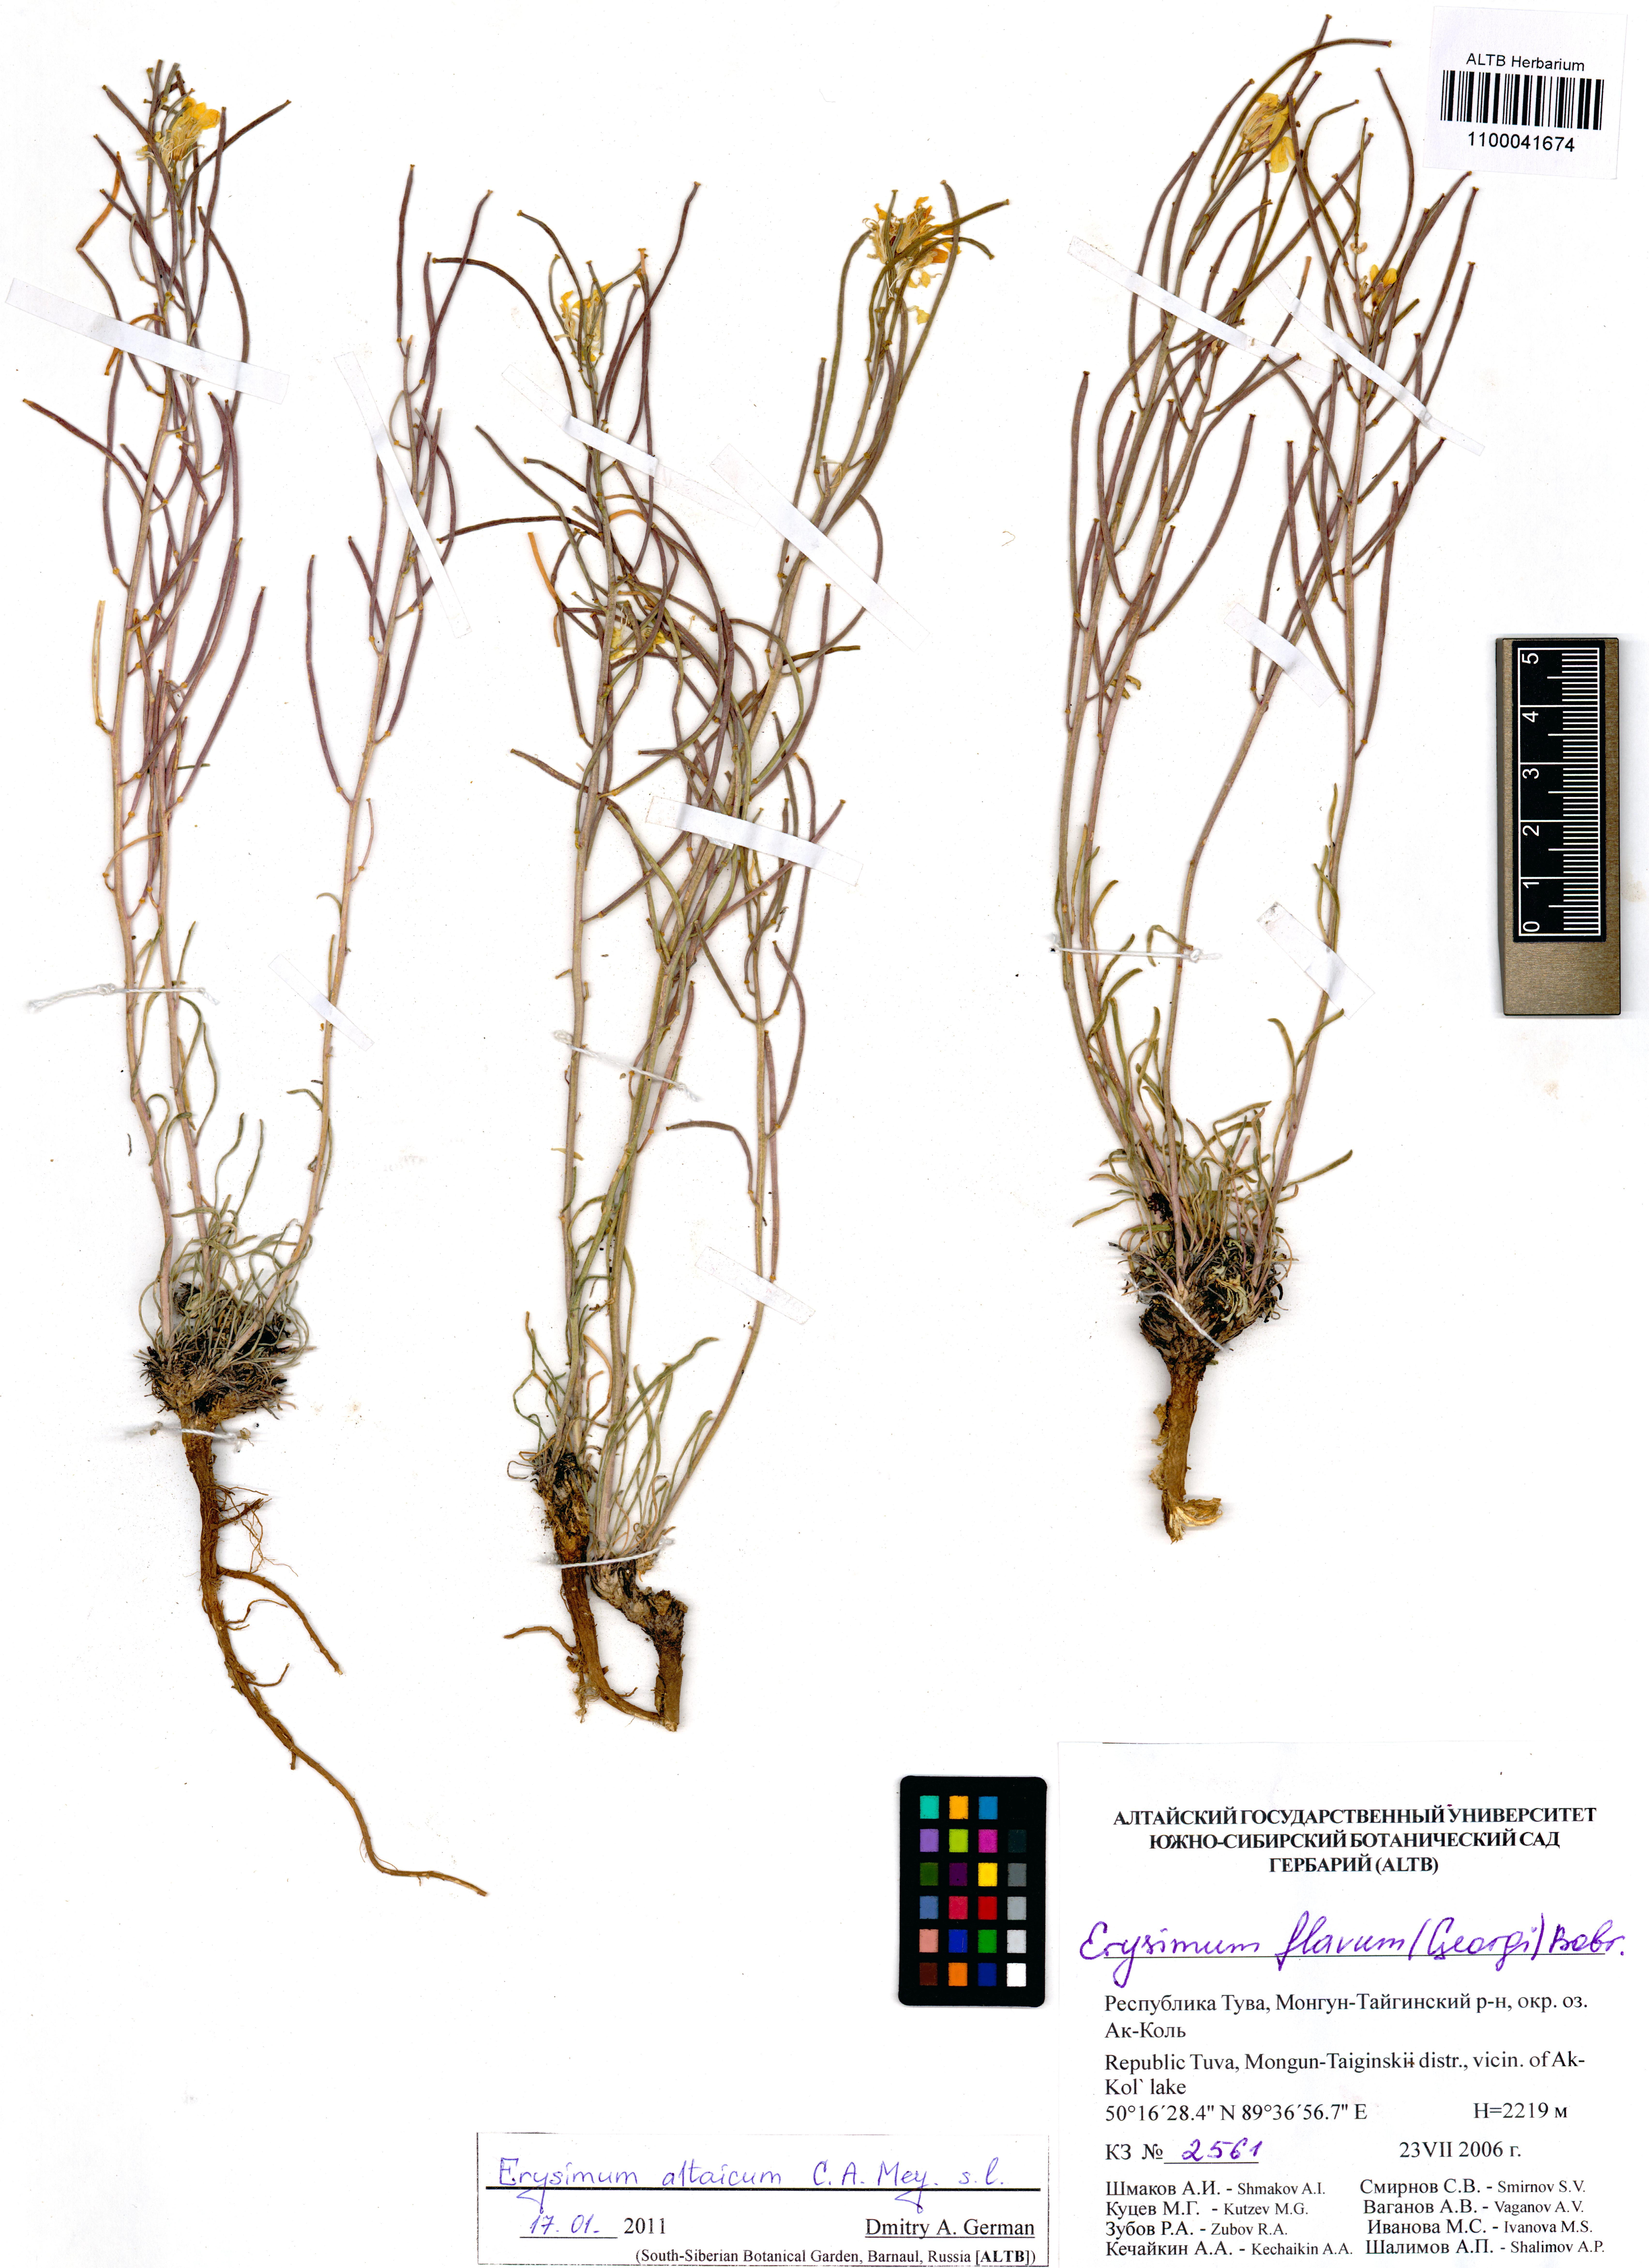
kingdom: Plantae
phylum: Tracheophyta
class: Magnoliopsida
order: Brassicales
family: Brassicaceae
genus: Erysimum
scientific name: Erysimum altaicum
